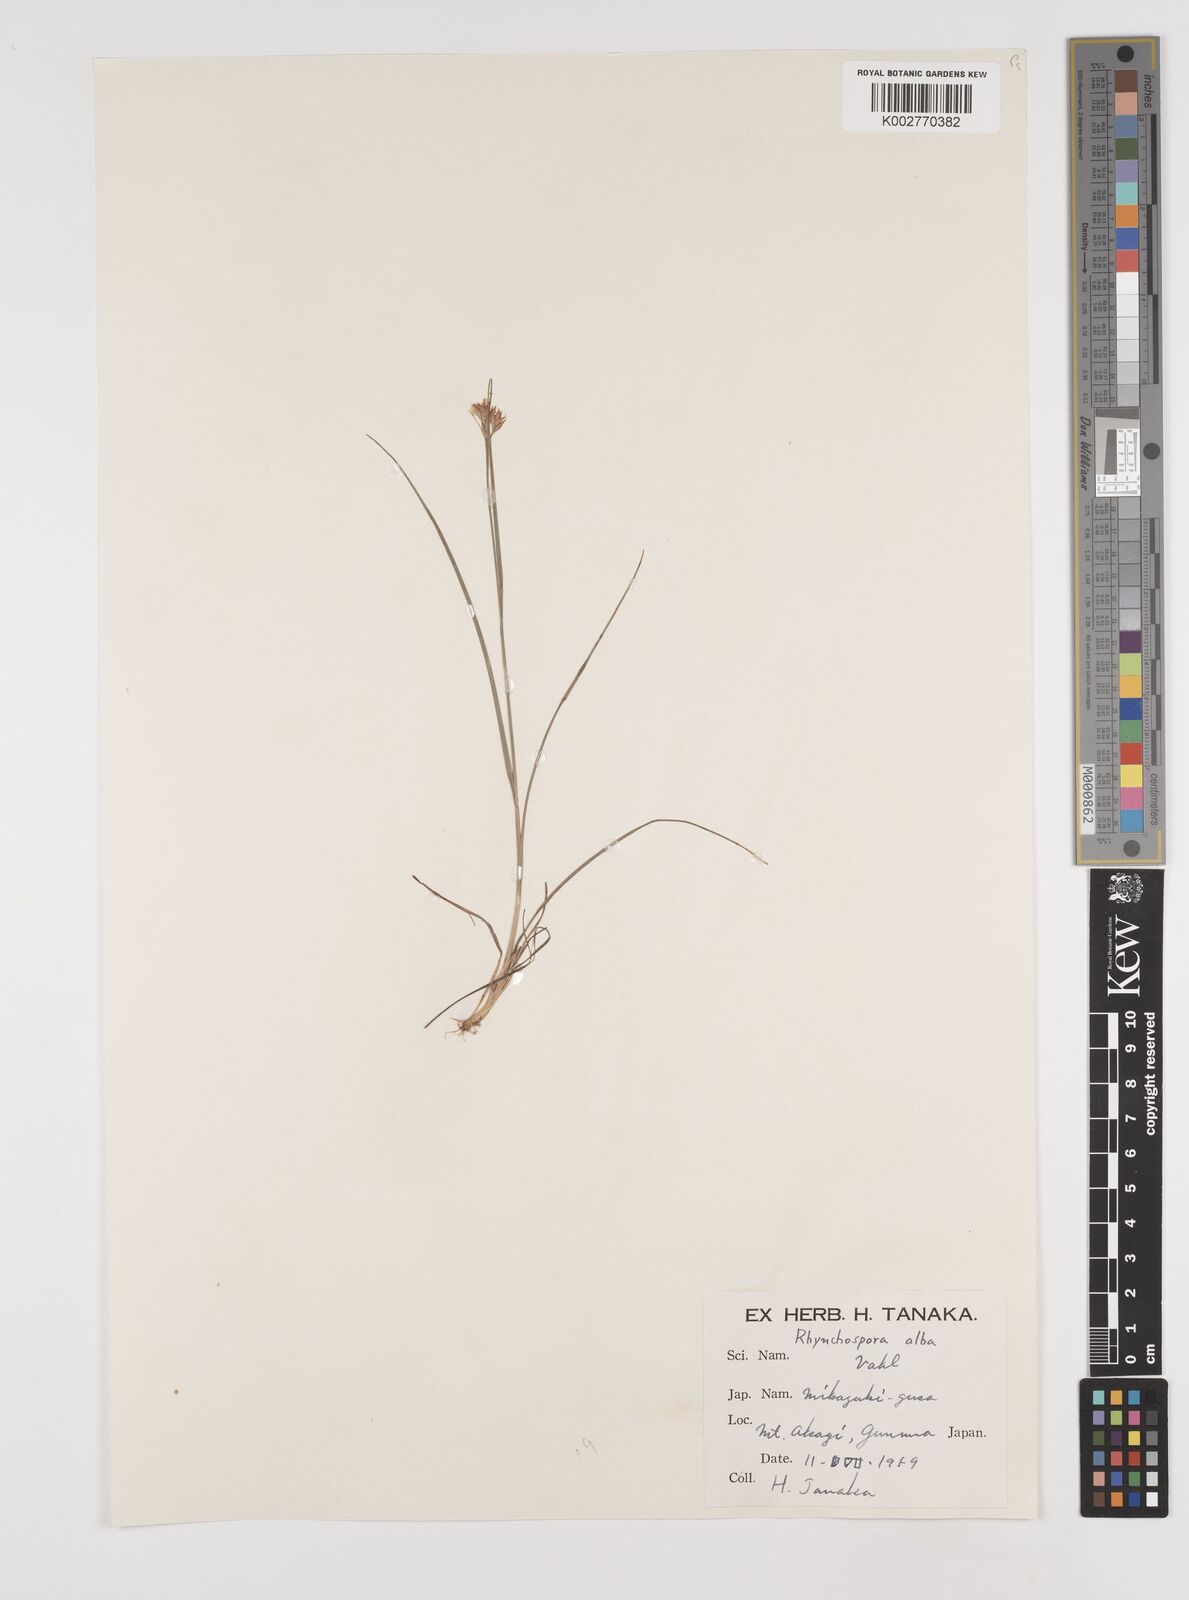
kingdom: Plantae
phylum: Tracheophyta
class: Liliopsida
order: Poales
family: Cyperaceae
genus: Rhynchospora
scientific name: Rhynchospora alba
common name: White beak-sedge
